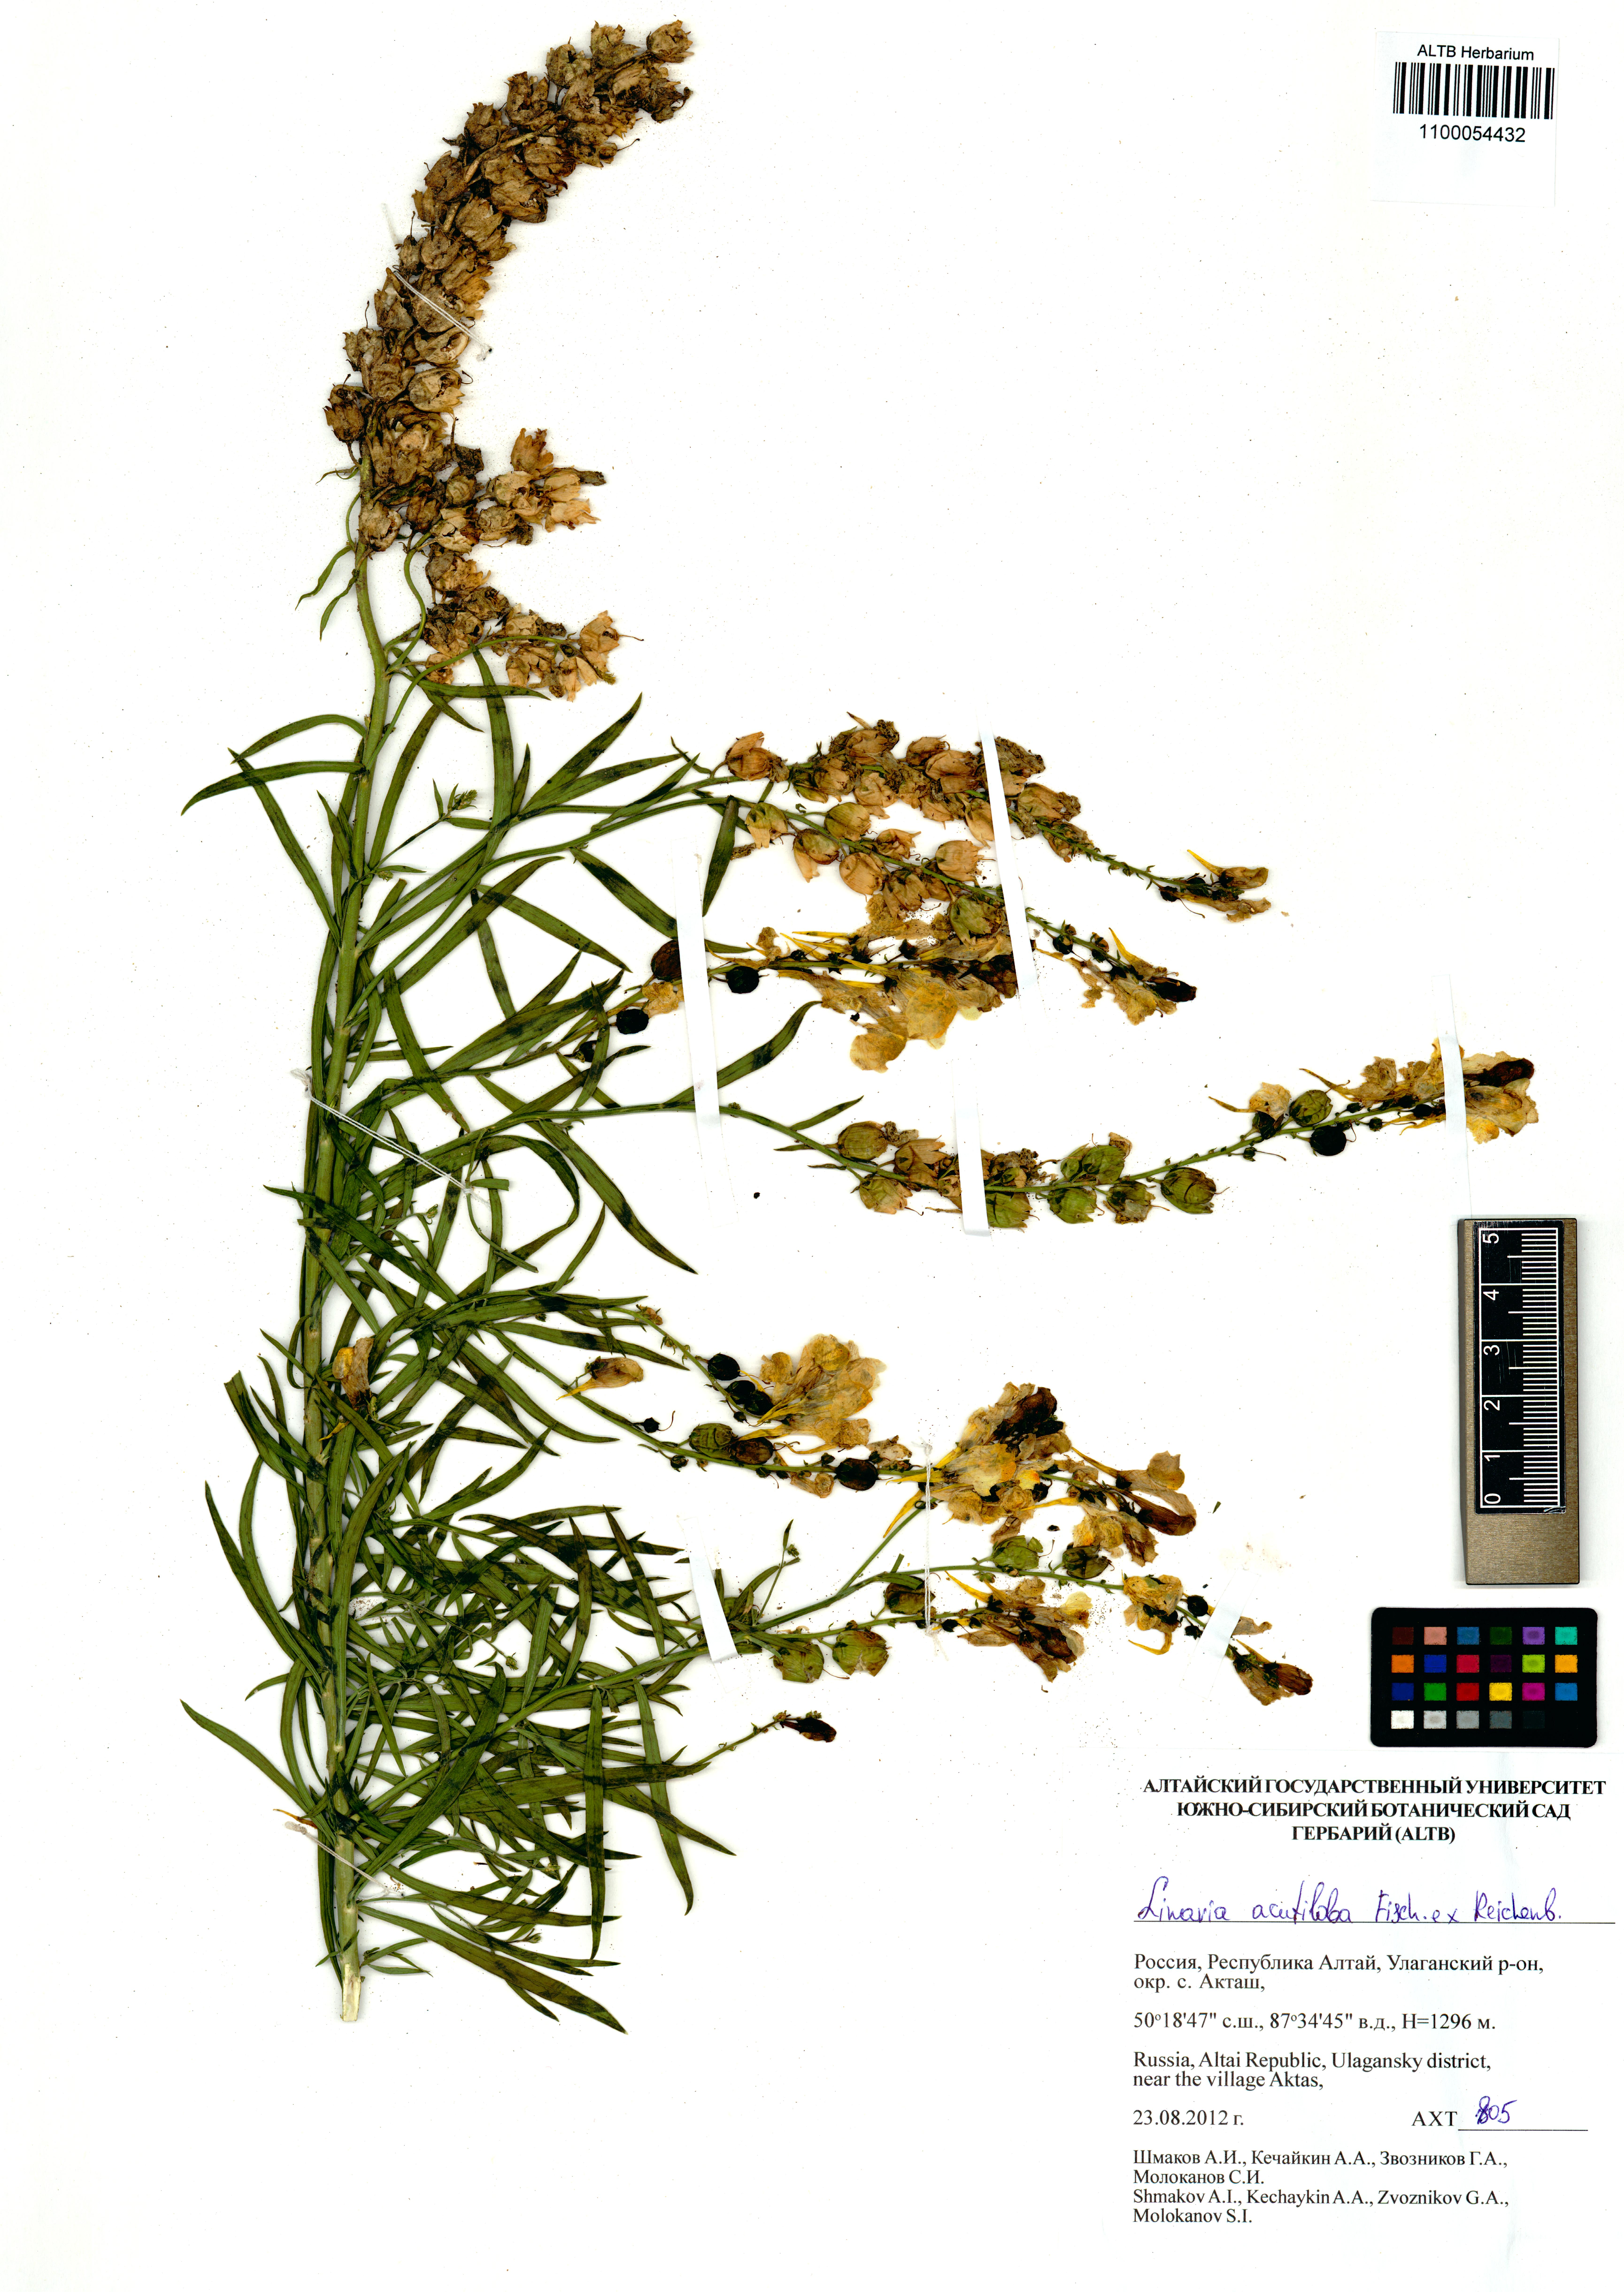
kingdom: Plantae
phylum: Tracheophyta
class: Magnoliopsida
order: Lamiales
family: Plantaginaceae
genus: Linaria
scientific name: Linaria acutiloba
